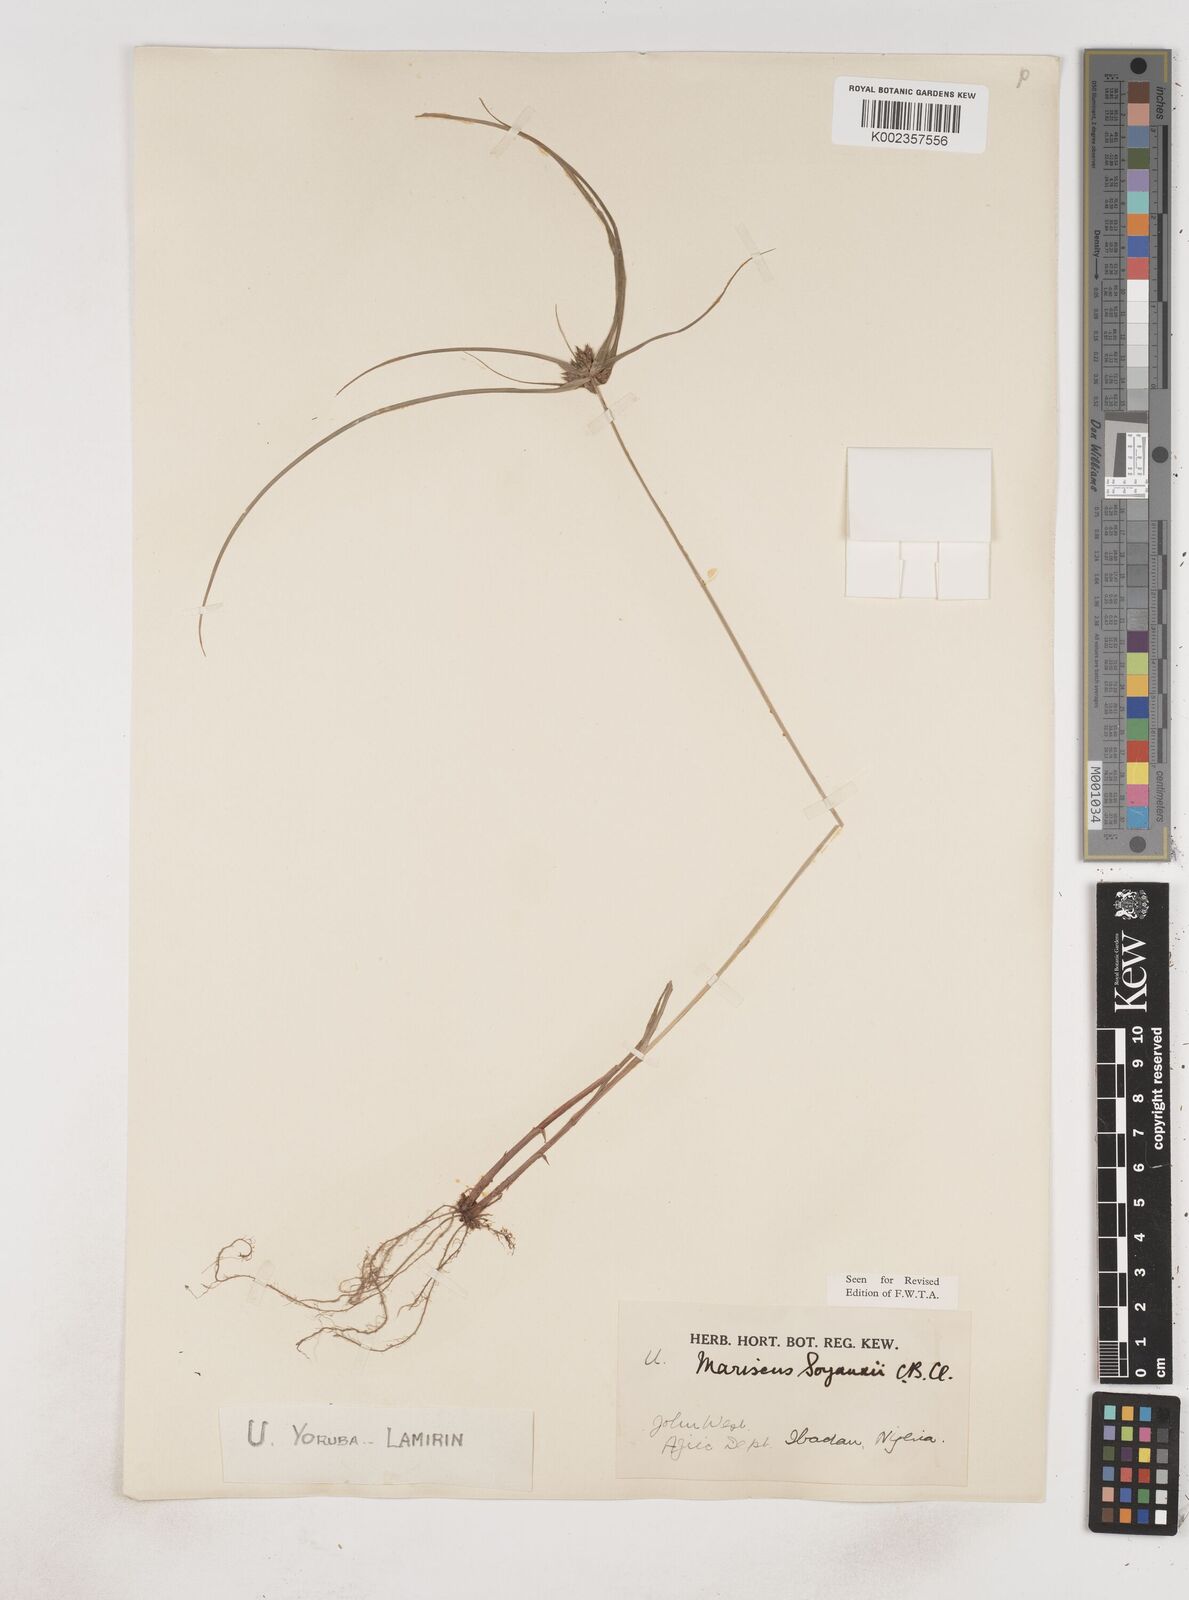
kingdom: Plantae
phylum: Tracheophyta
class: Liliopsida
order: Poales
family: Cyperaceae
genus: Cyperus
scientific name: Cyperus soyauxii
